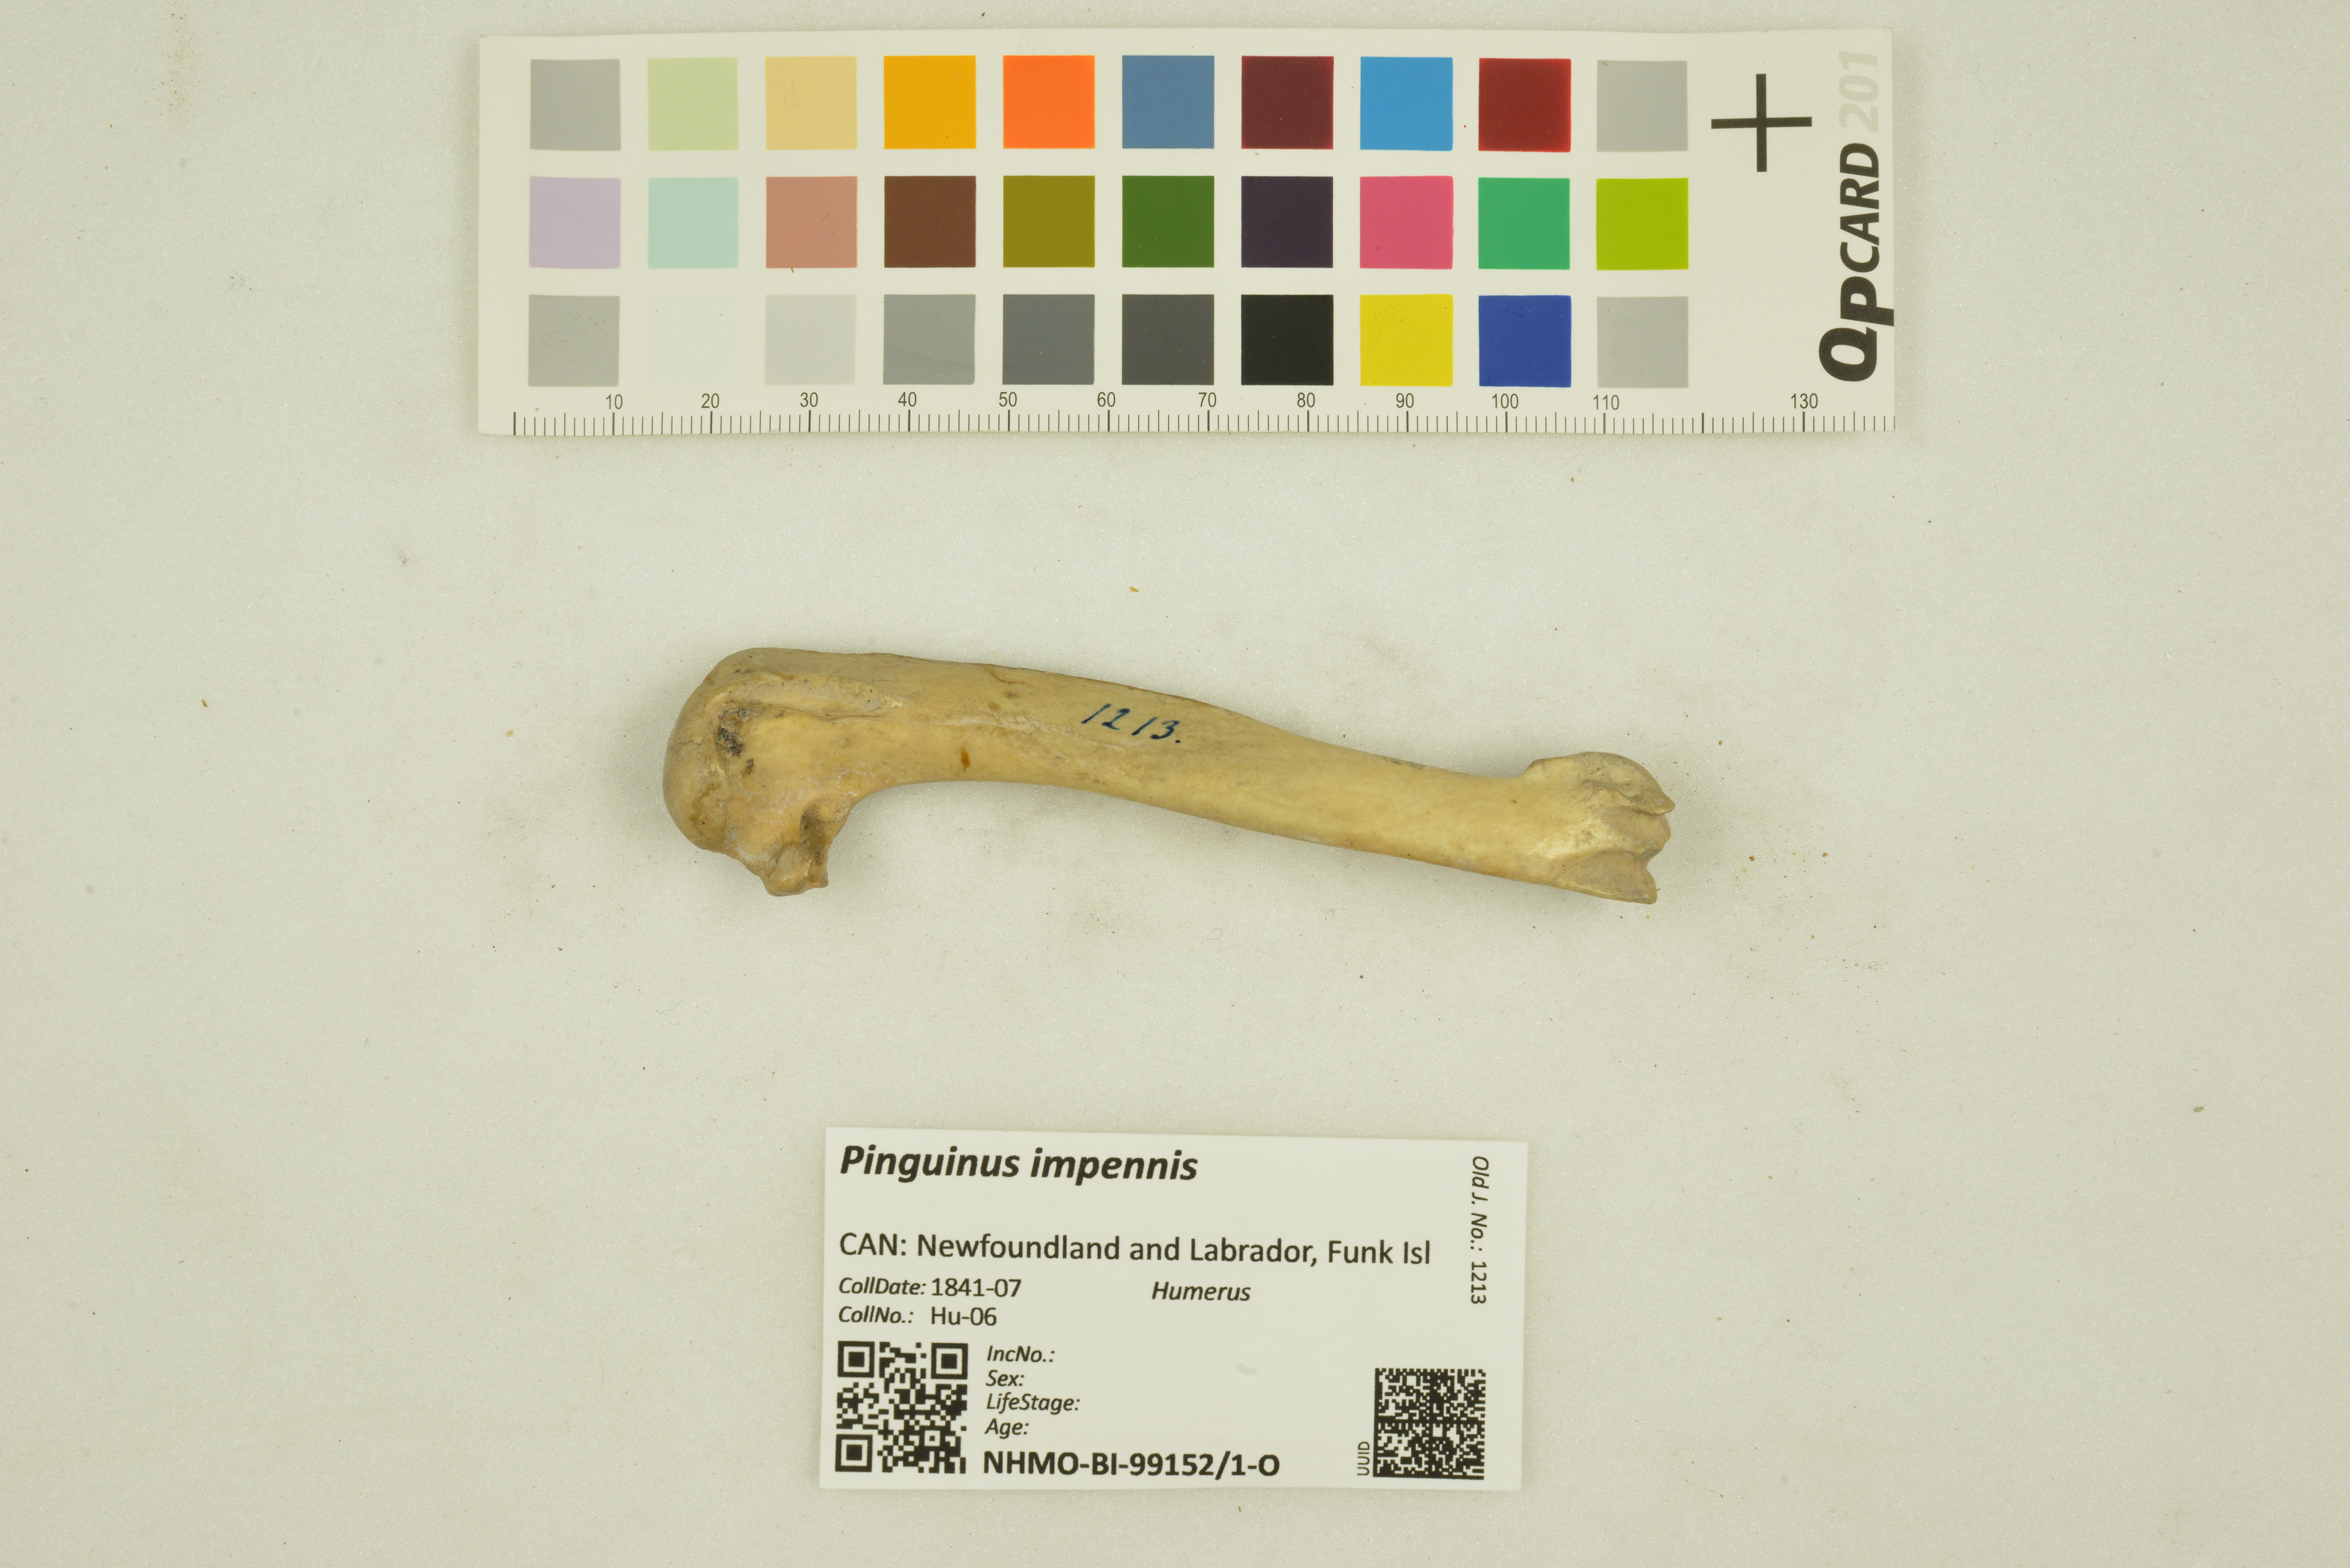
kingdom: Animalia
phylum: Chordata
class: Aves
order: Charadriiformes
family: Alcidae
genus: Pinguinus
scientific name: Pinguinus impennis
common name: Great auk
